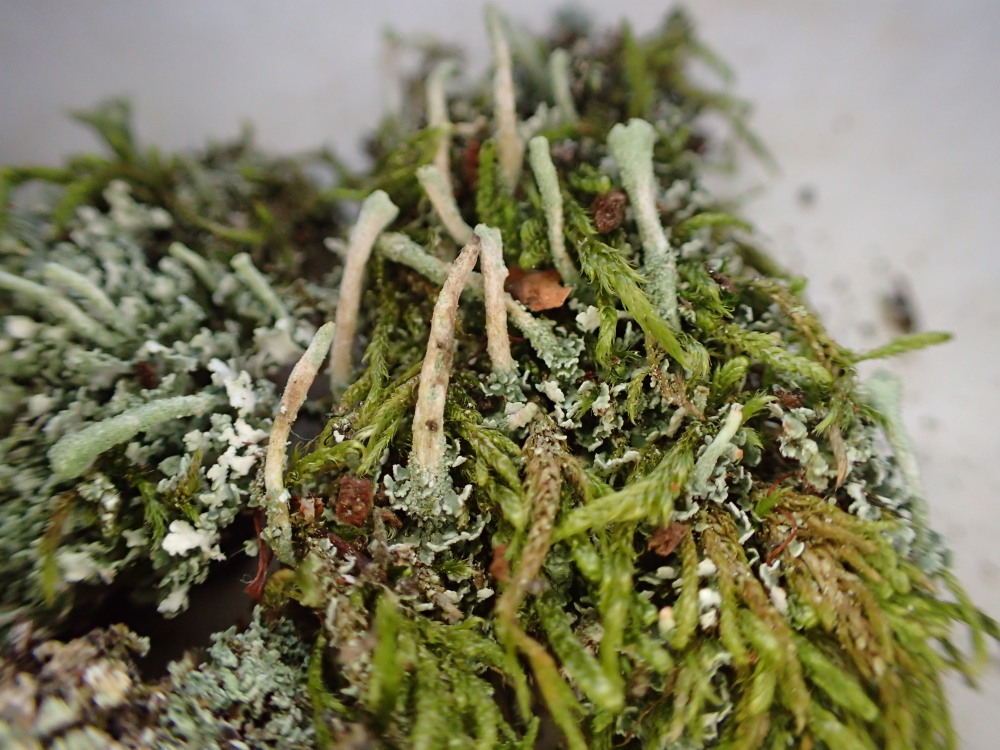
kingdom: Fungi
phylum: Ascomycota
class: Lecanoromycetes
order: Lecanorales
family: Cladoniaceae
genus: Cladonia
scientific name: Cladonia fimbriata
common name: bleggrøn bægerlav
